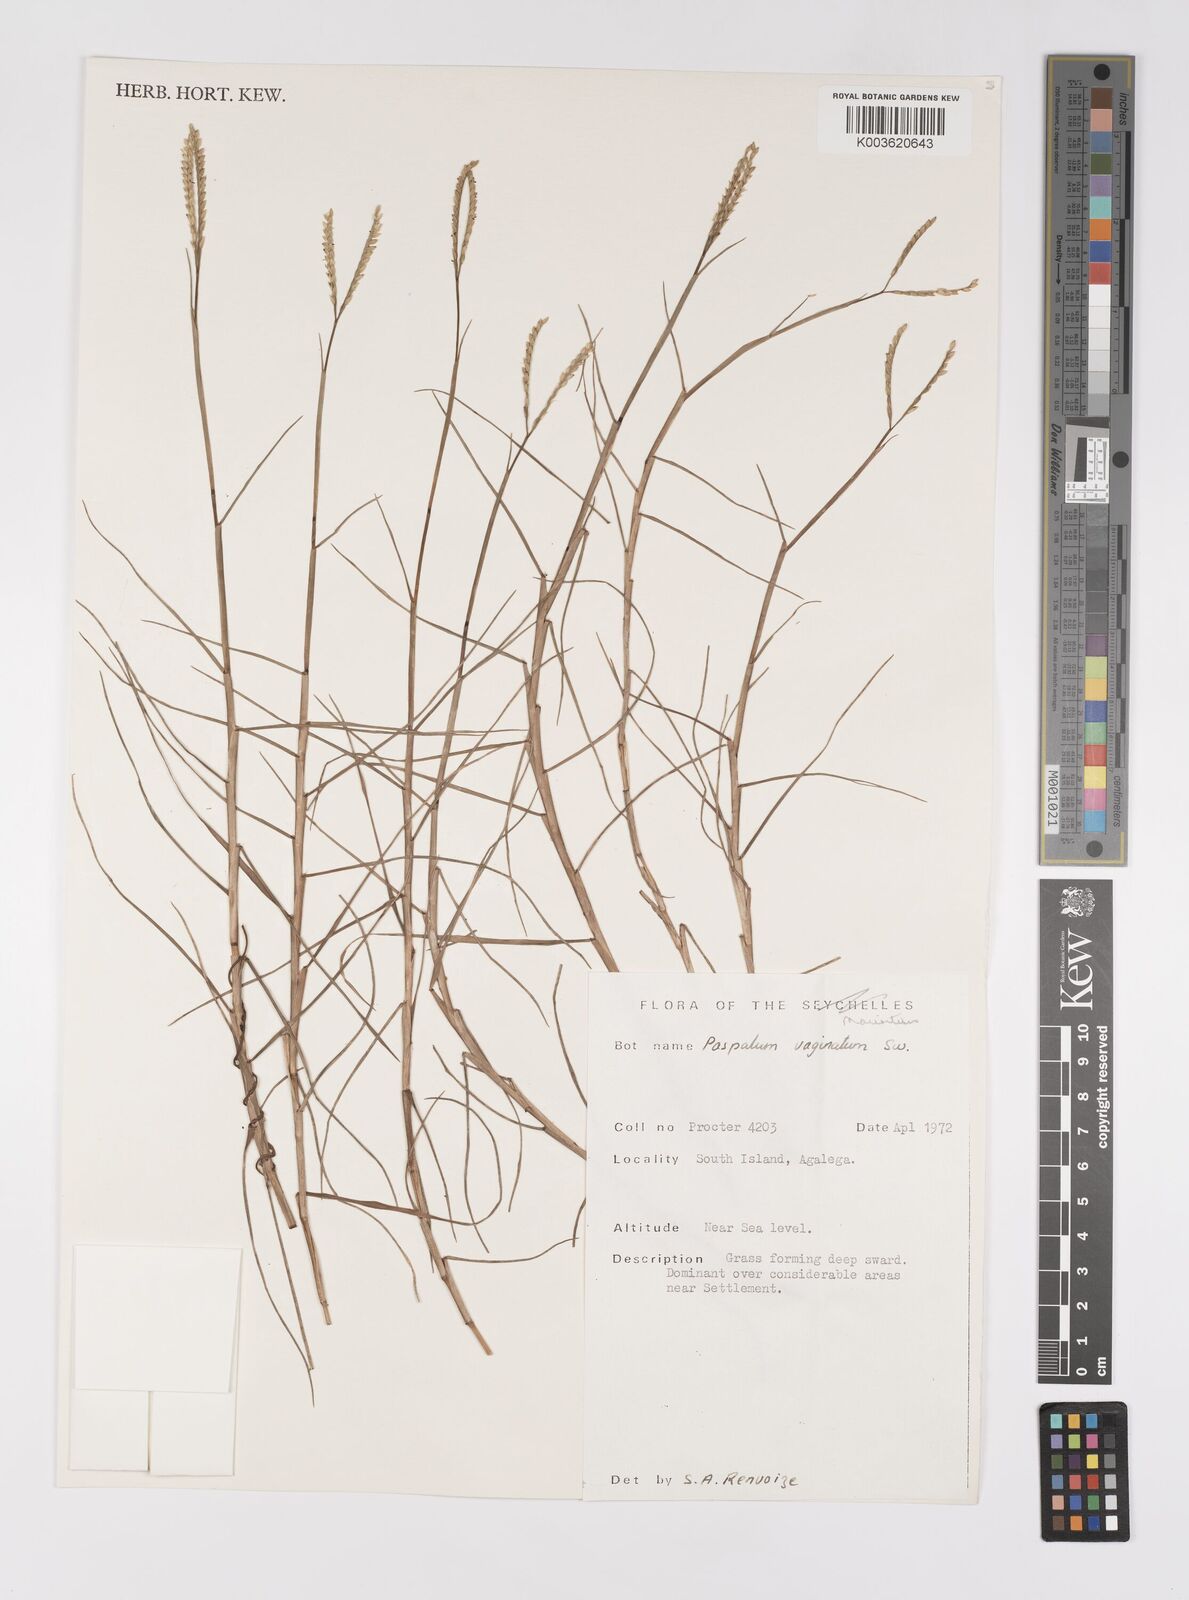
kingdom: Plantae
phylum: Tracheophyta
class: Liliopsida
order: Poales
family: Poaceae
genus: Paspalum
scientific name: Paspalum vaginatum
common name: Seashore paspalum
